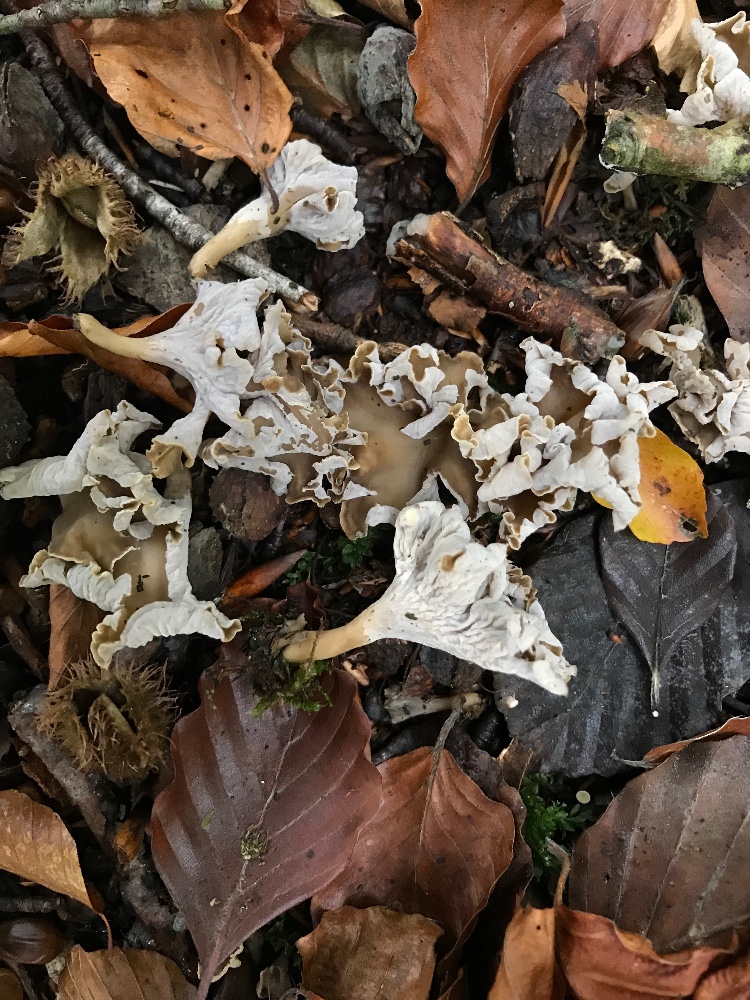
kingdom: Fungi
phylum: Basidiomycota
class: Agaricomycetes
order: Cantharellales
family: Hydnaceae
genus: Craterellus
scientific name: Craterellus undulatus
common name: liden kantarel
